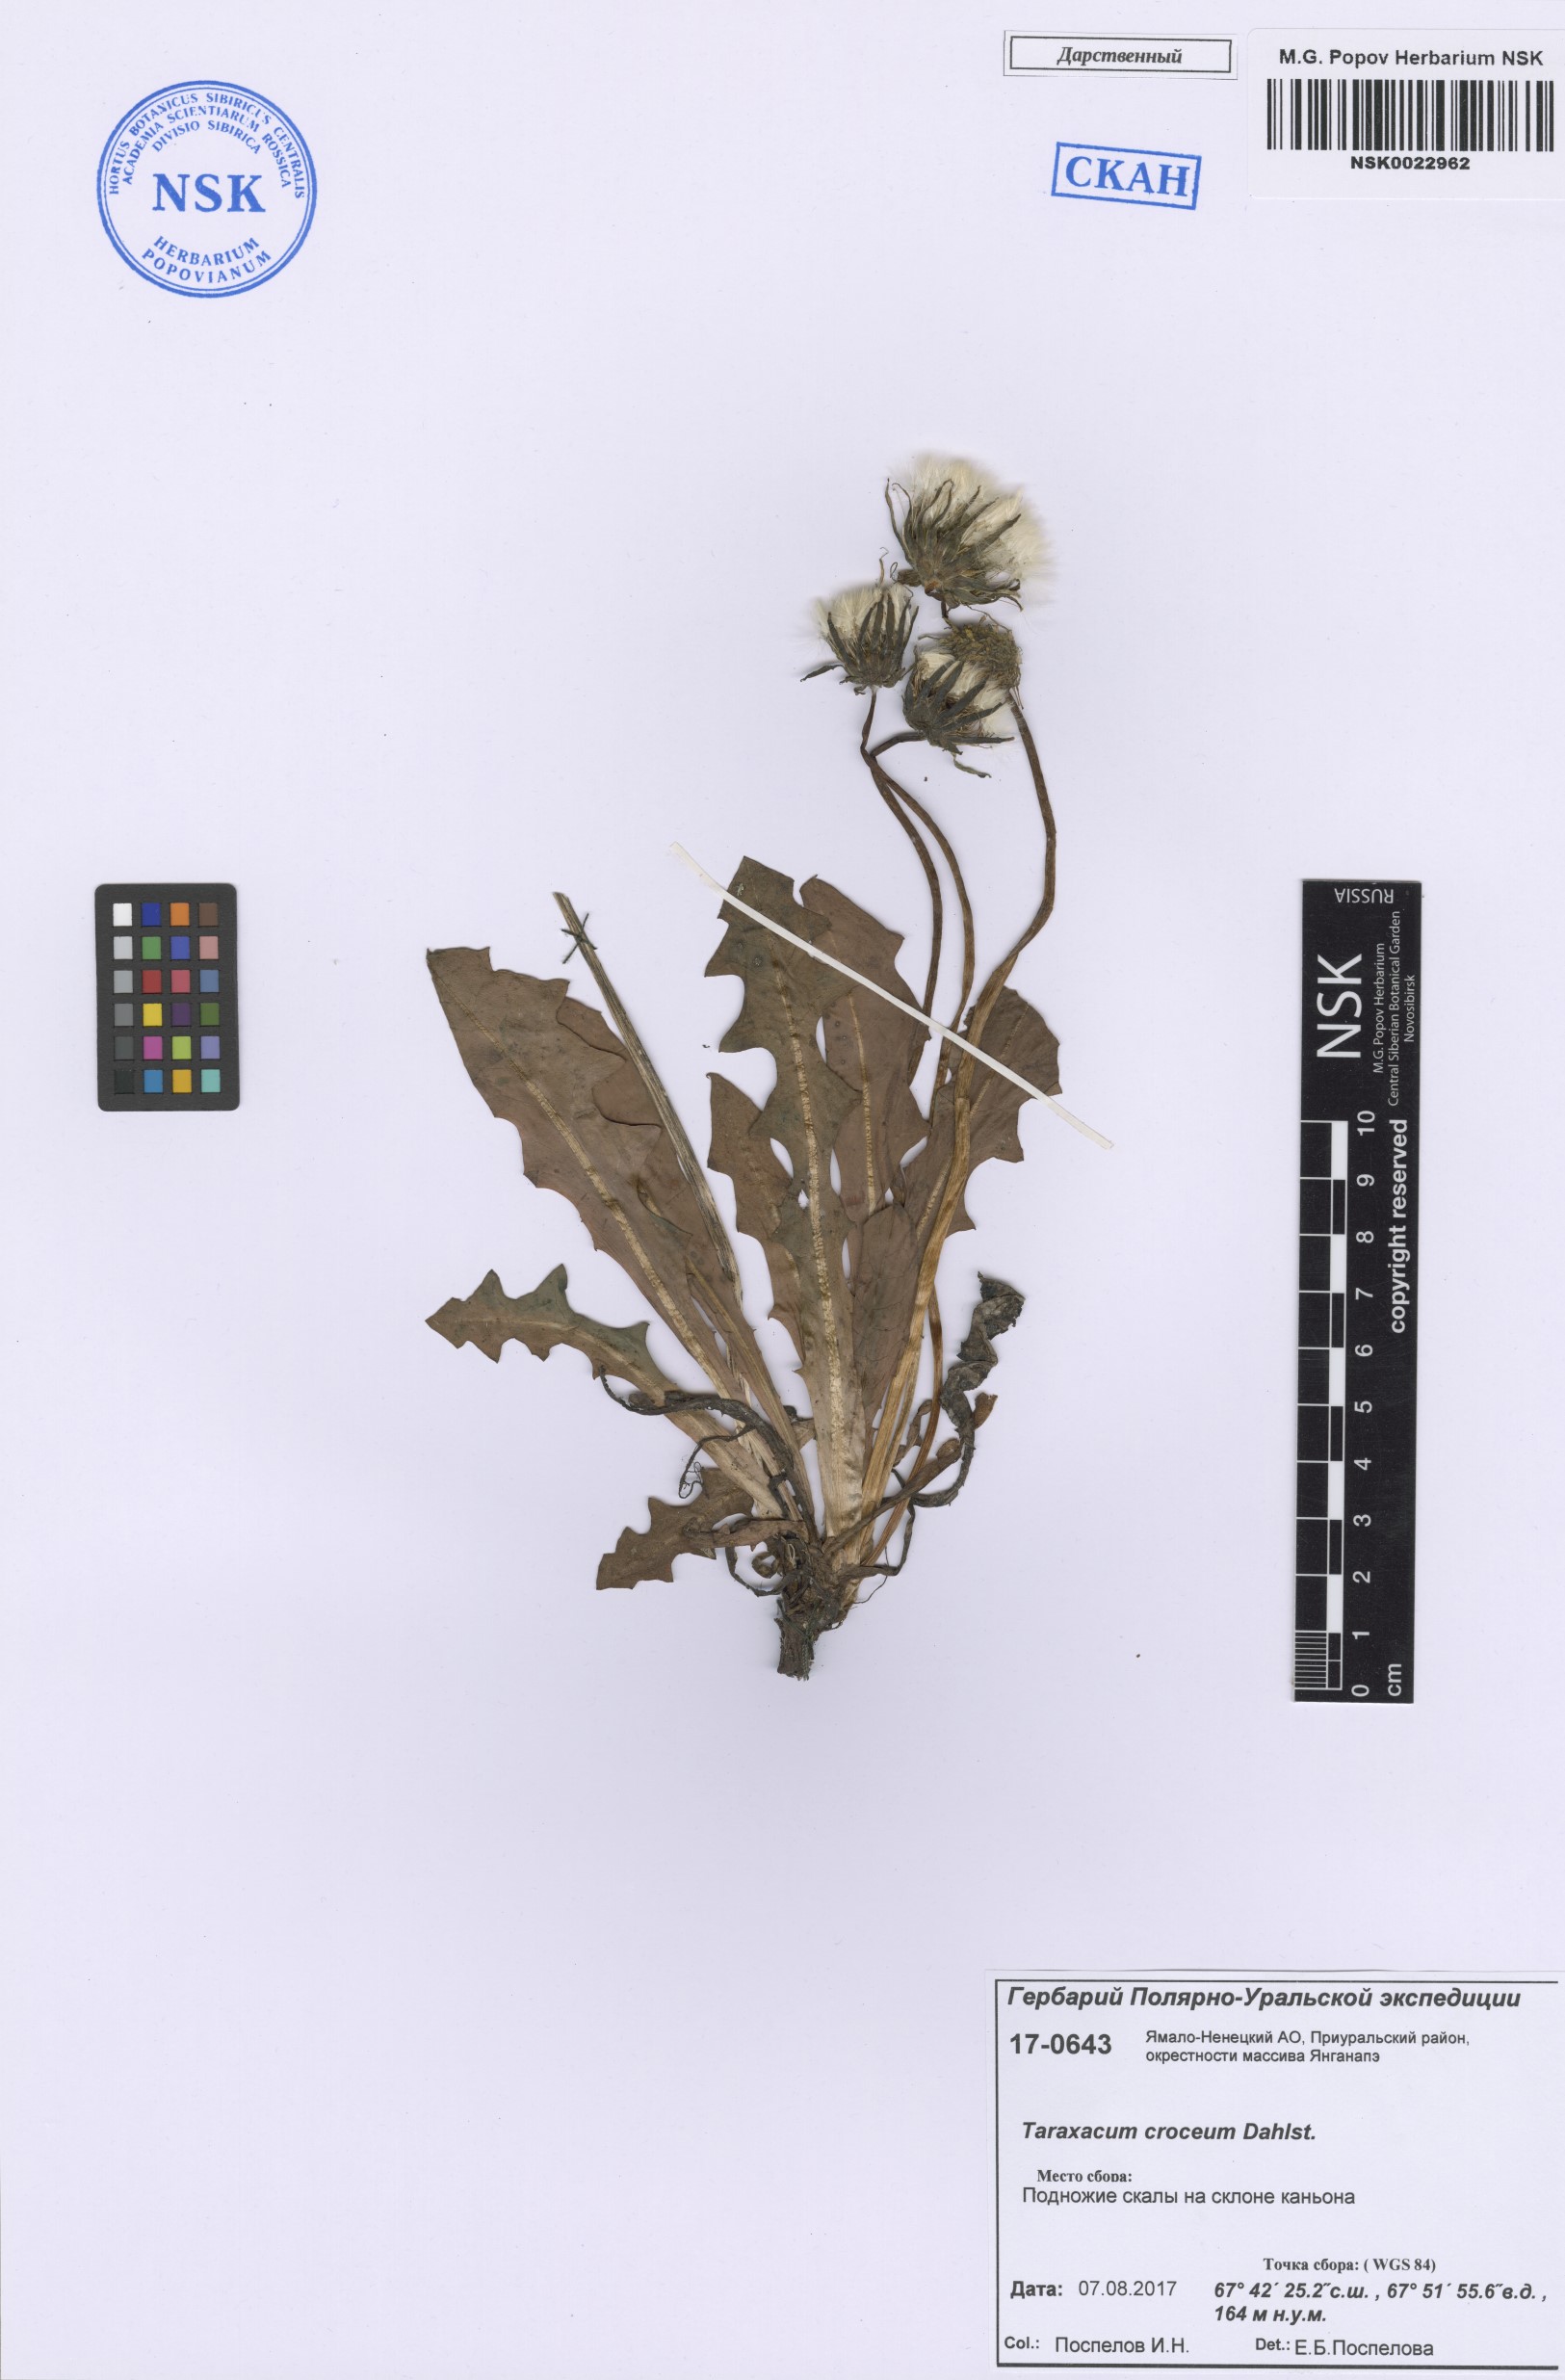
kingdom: Plantae
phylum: Tracheophyta
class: Magnoliopsida
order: Asterales
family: Asteraceae
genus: Taraxacum
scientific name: Taraxacum croceum
